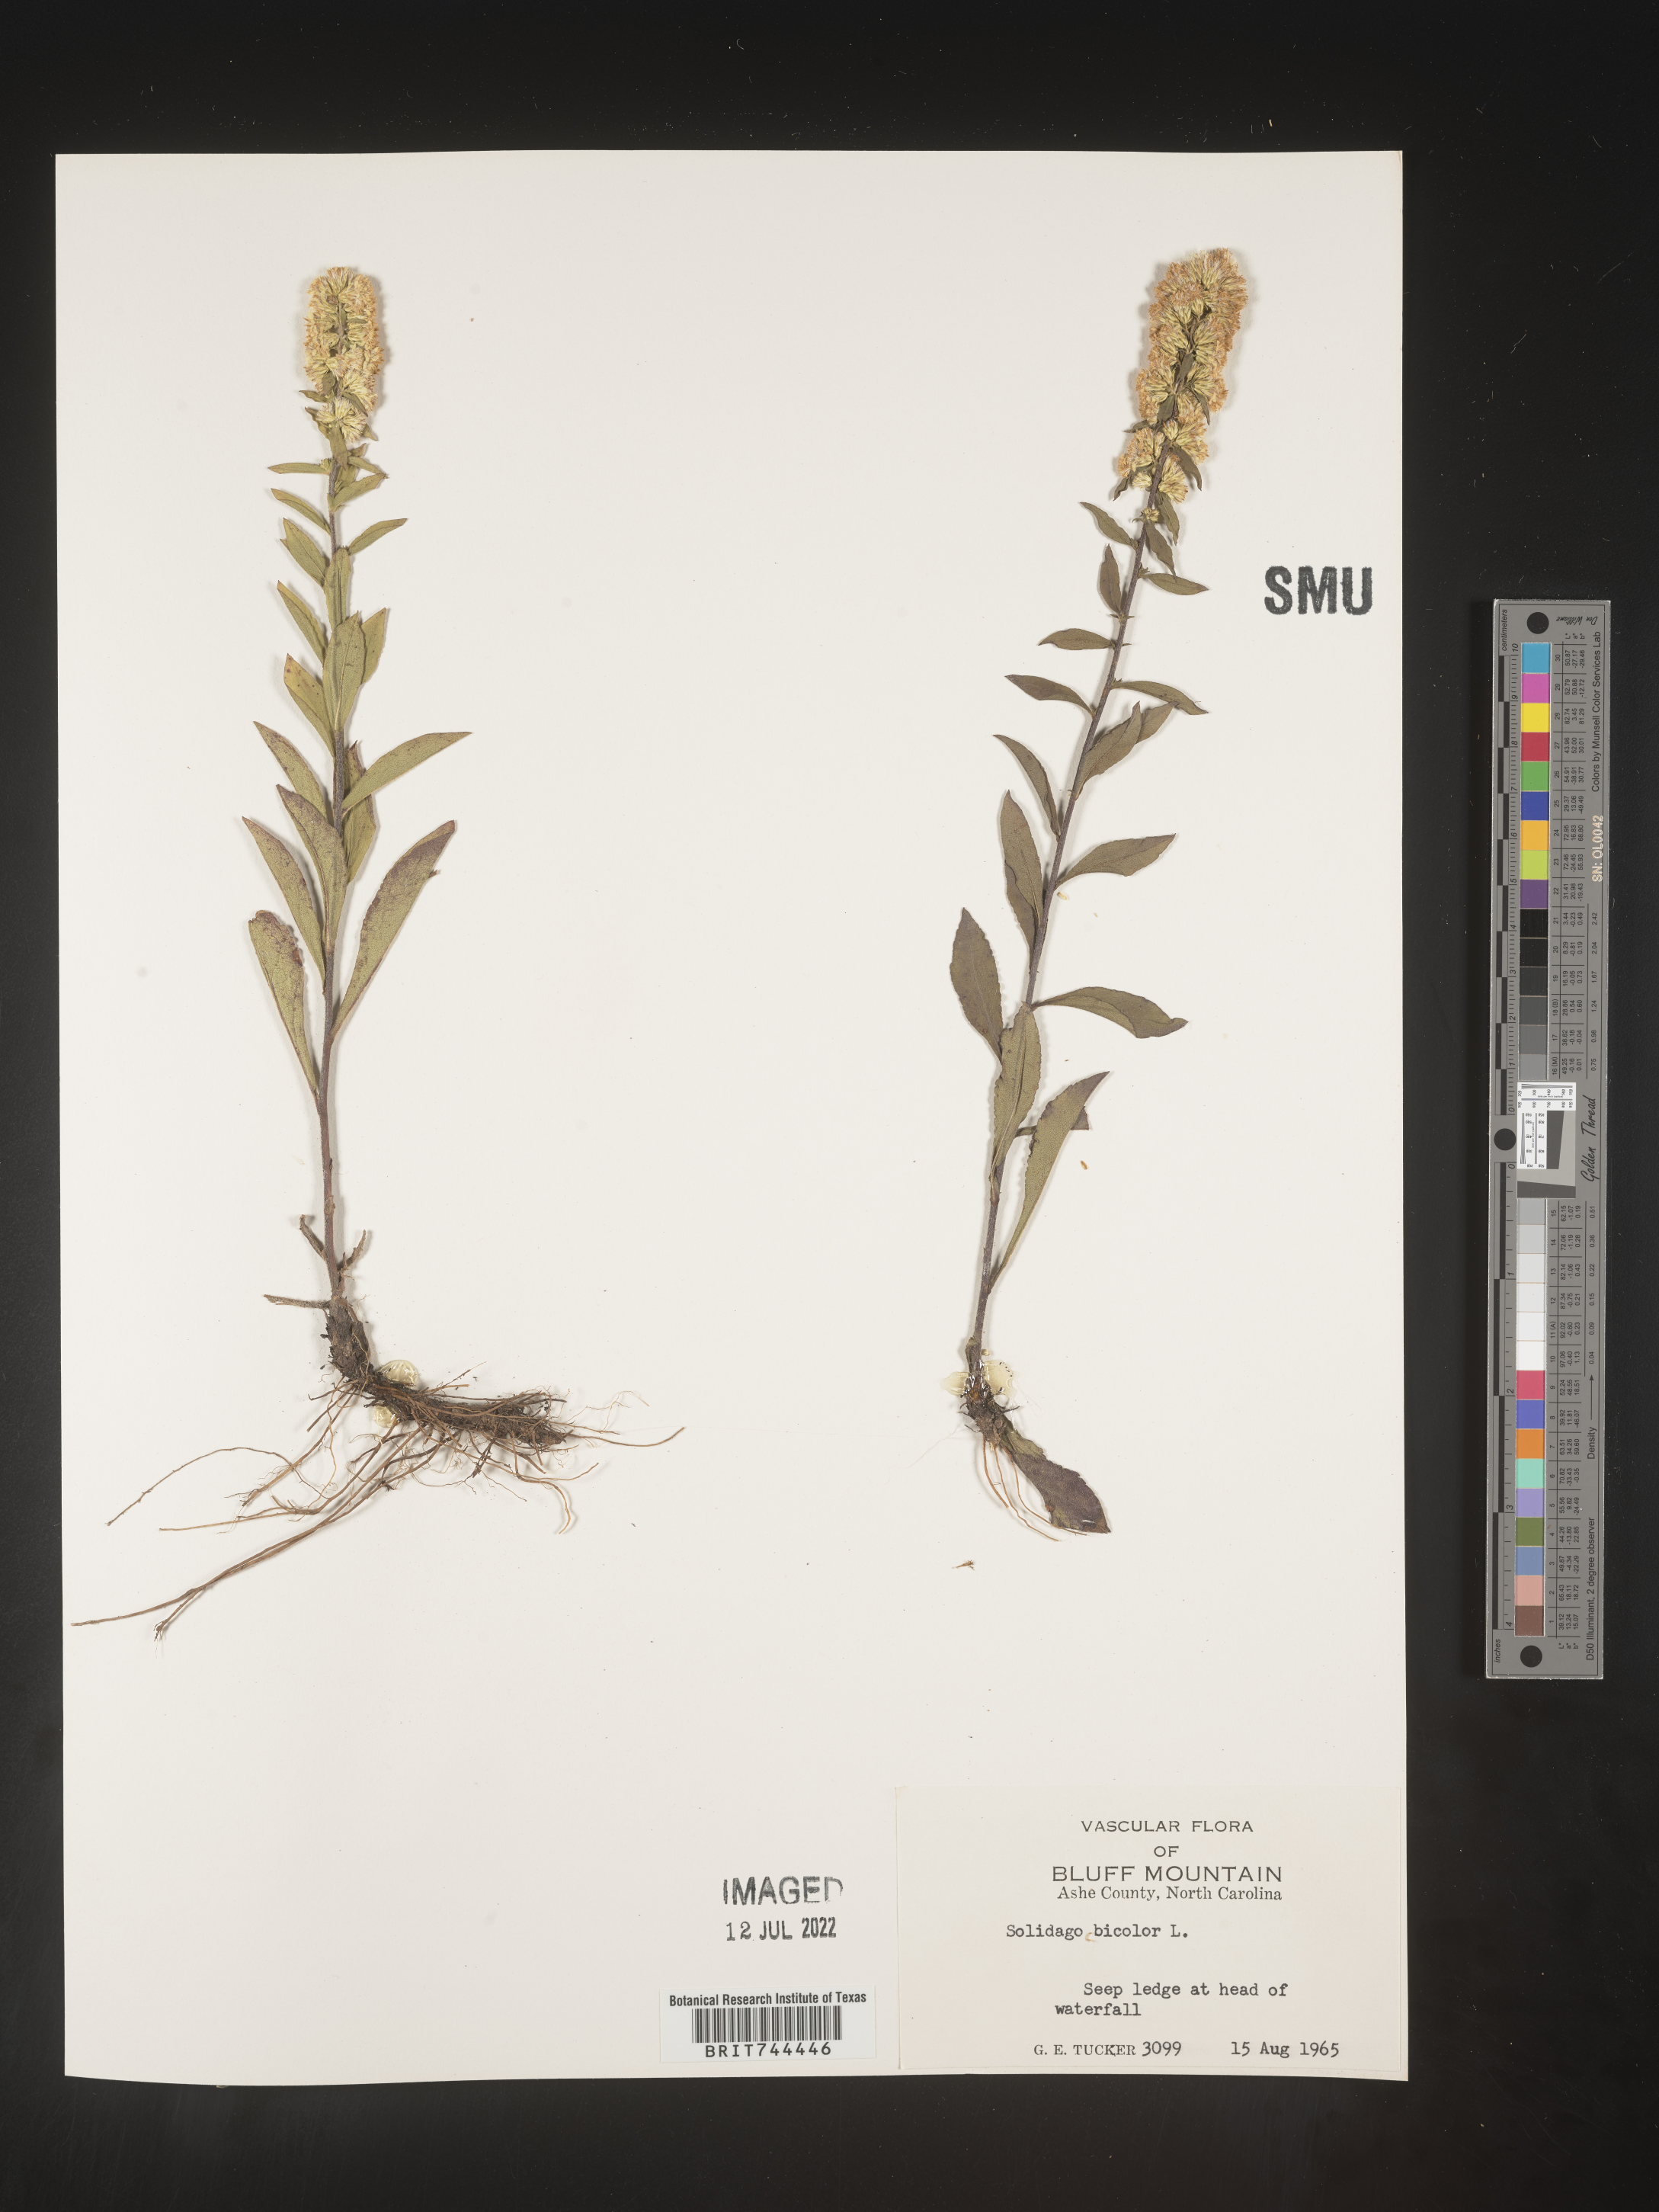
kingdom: Plantae
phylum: Tracheophyta
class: Magnoliopsida
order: Asterales
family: Asteraceae
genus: Solidago
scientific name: Solidago bicolor
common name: Silverrod
